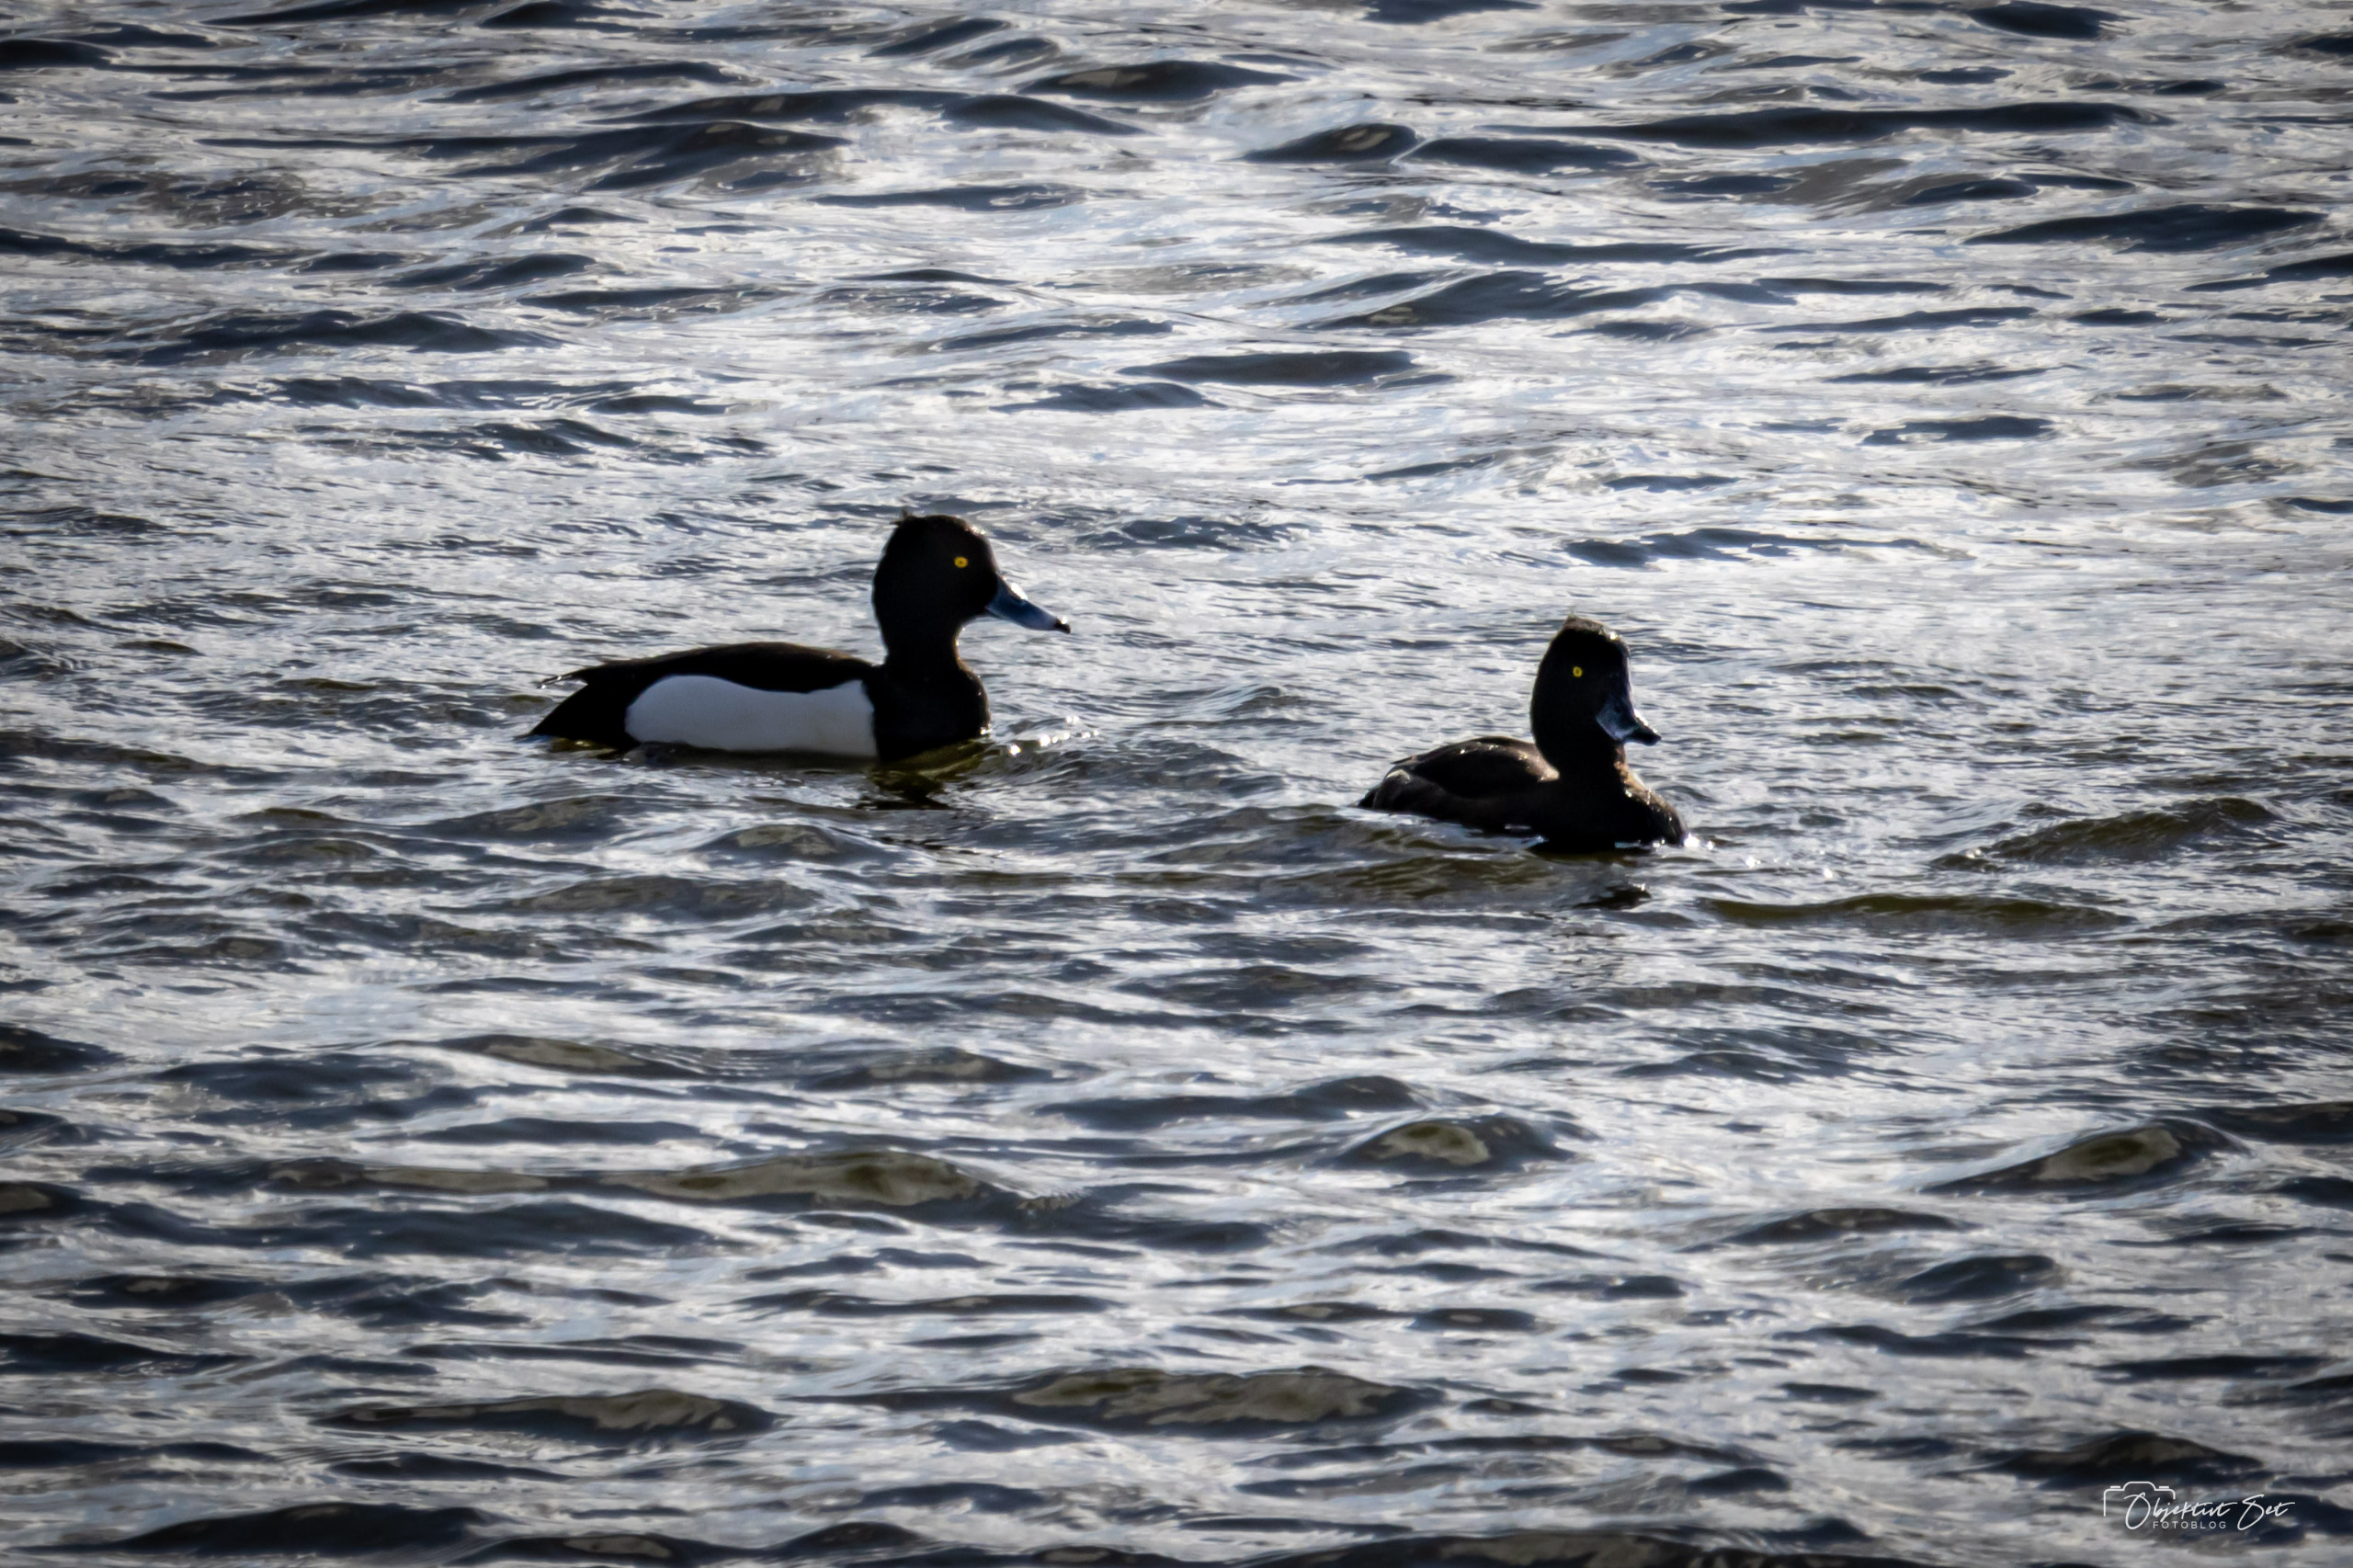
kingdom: Animalia
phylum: Chordata
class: Aves
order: Anseriformes
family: Anatidae
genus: Aythya
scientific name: Aythya fuligula
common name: Troldand
